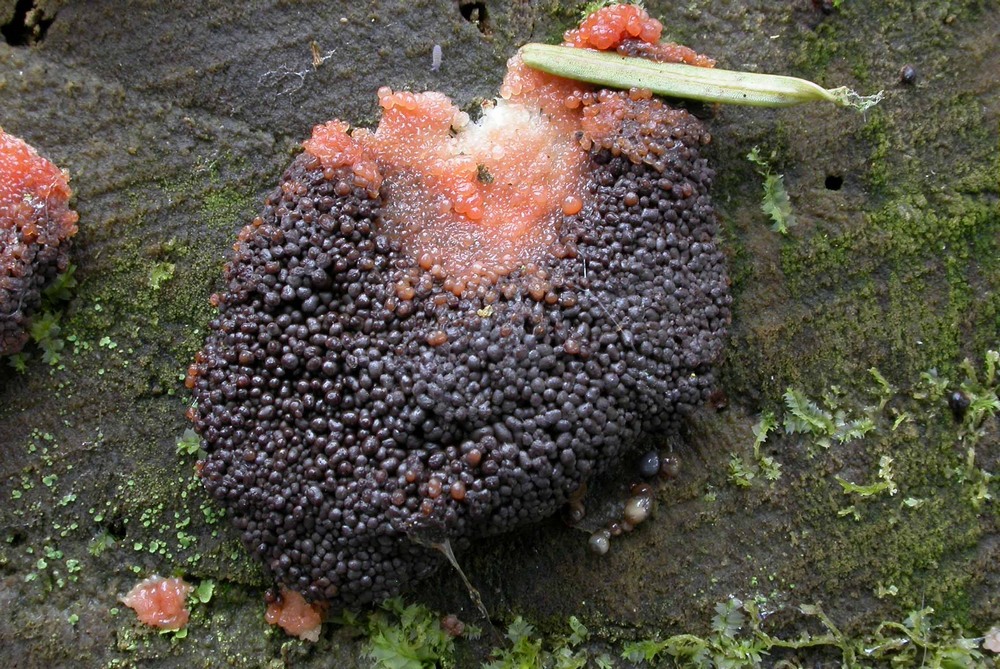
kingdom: Protozoa
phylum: Mycetozoa
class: Myxomycetes
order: Cribrariales
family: Tubiferaceae
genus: Tubifera
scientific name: Tubifera ferruginosa
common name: kanel-støvrør
